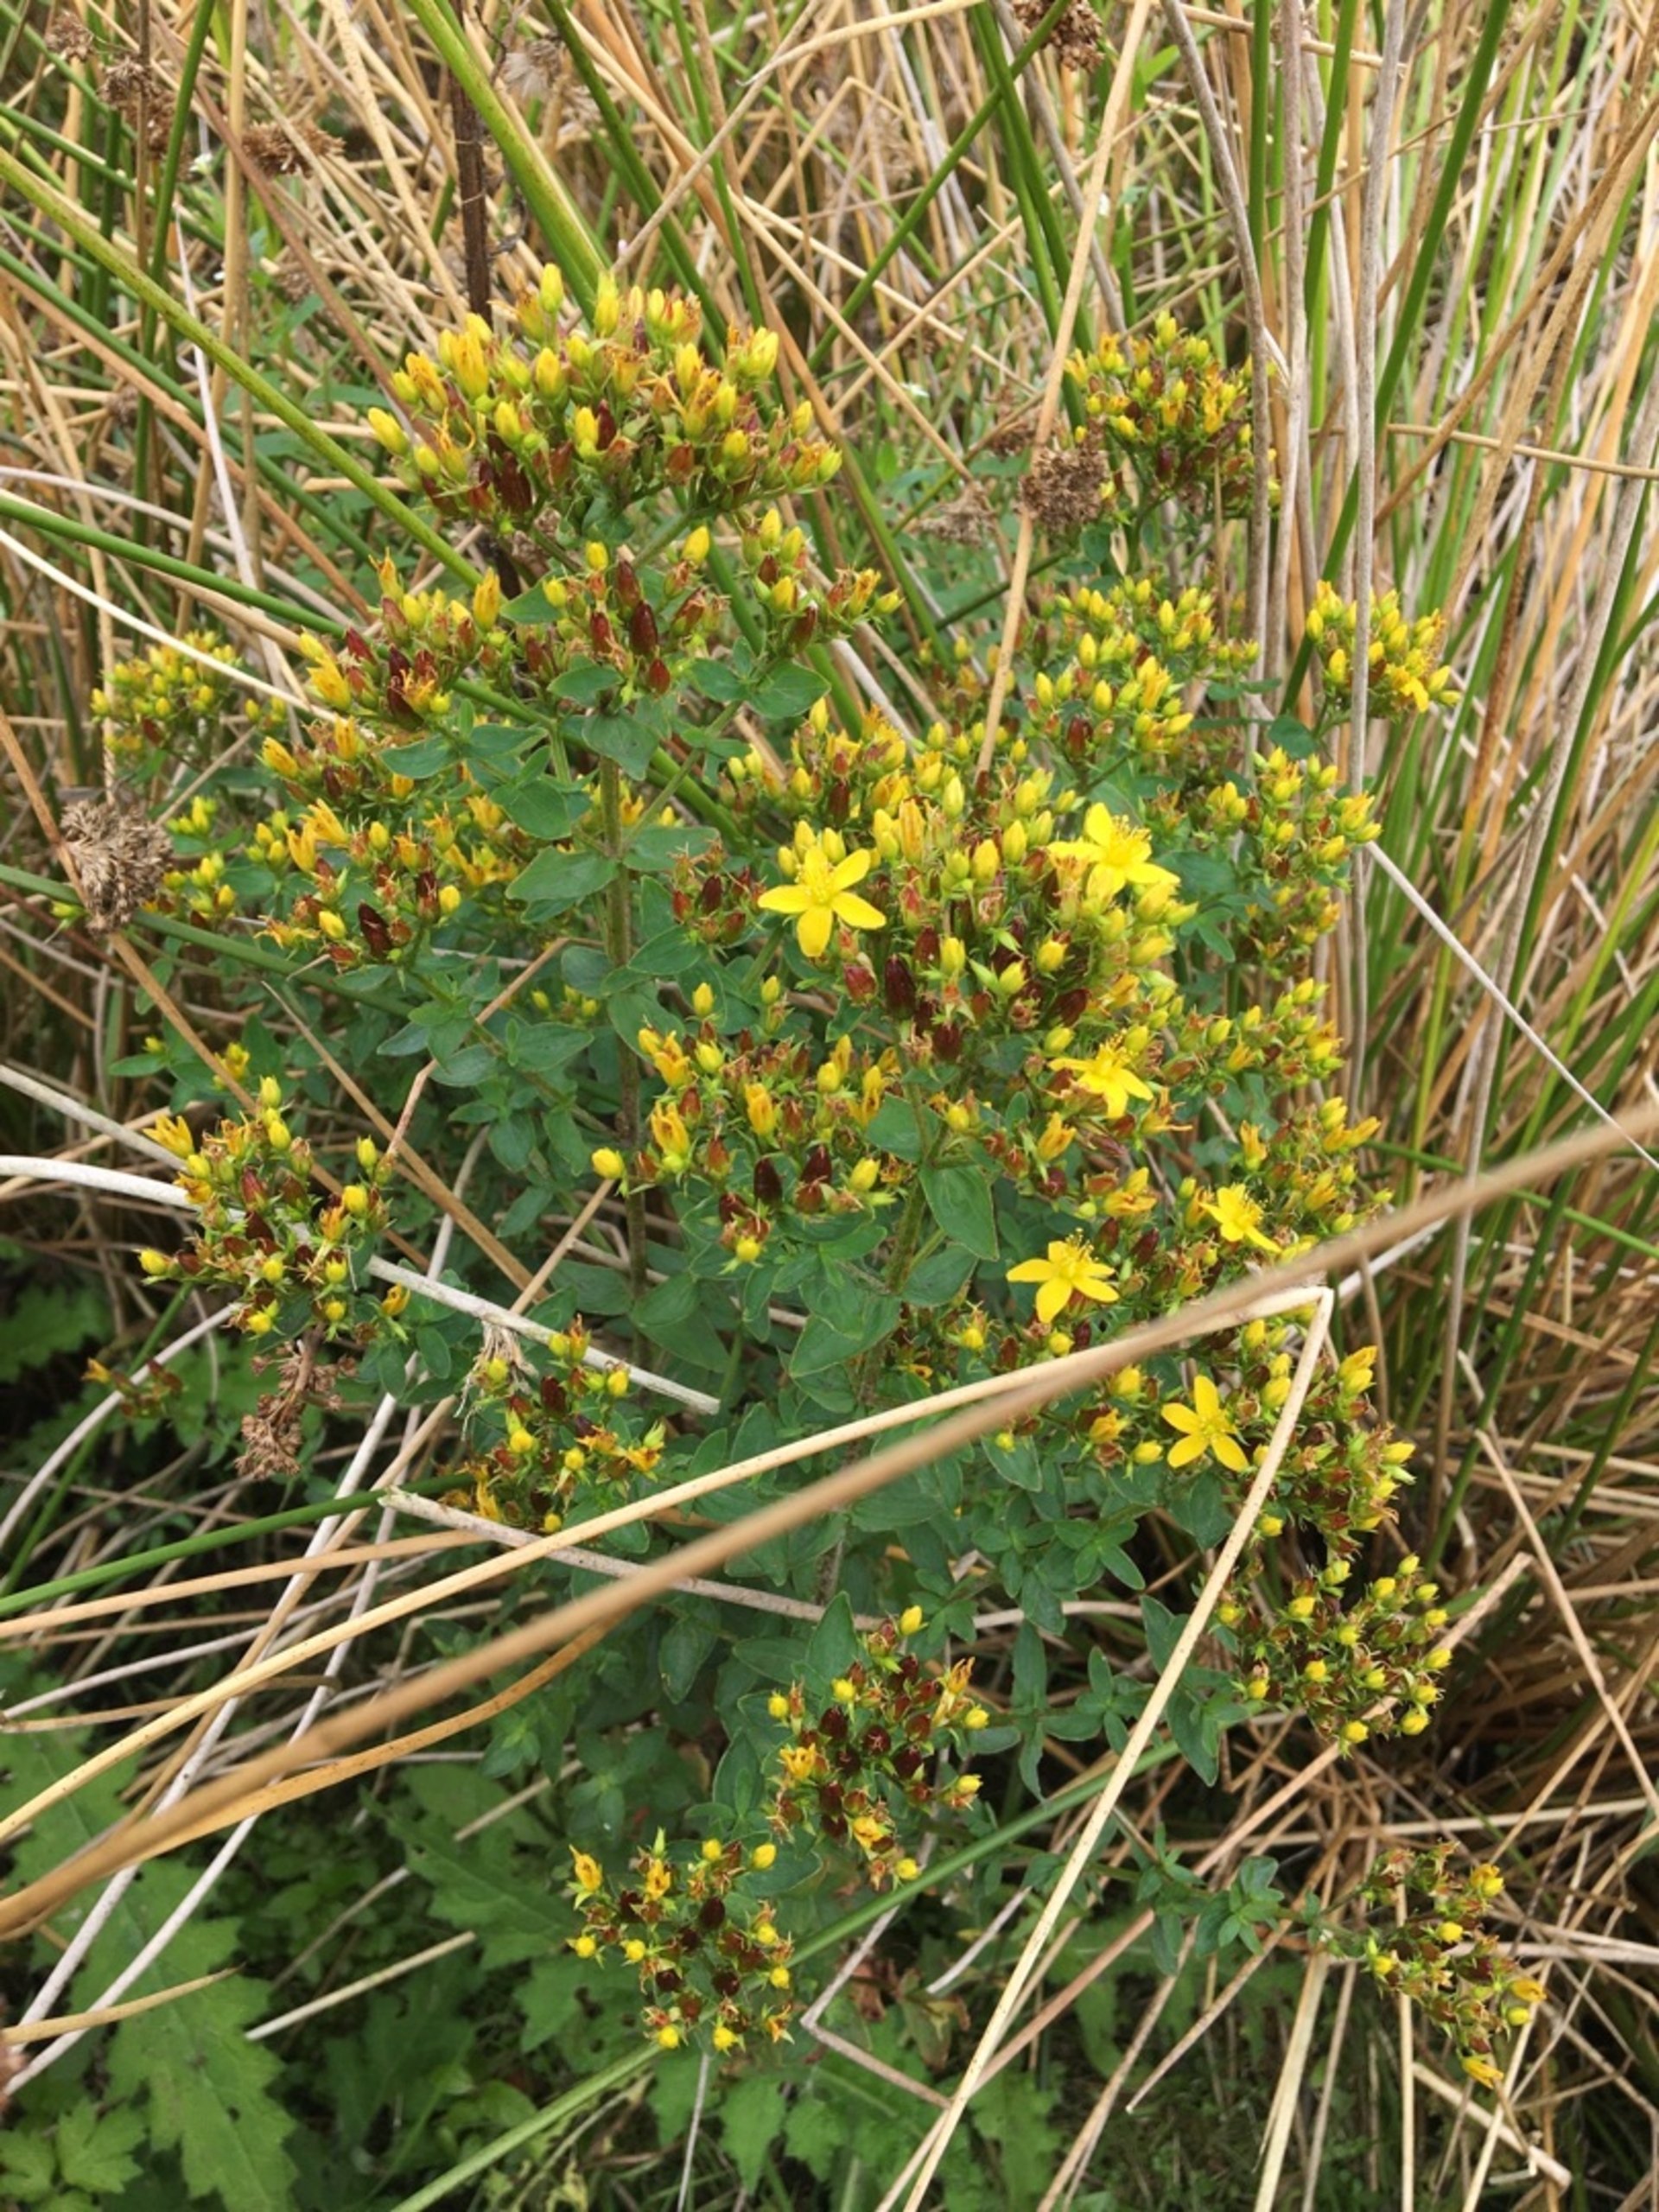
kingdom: Plantae
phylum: Tracheophyta
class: Magnoliopsida
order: Malpighiales
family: Hypericaceae
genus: Hypericum
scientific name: Hypericum tetrapterum
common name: Vinget perikon
